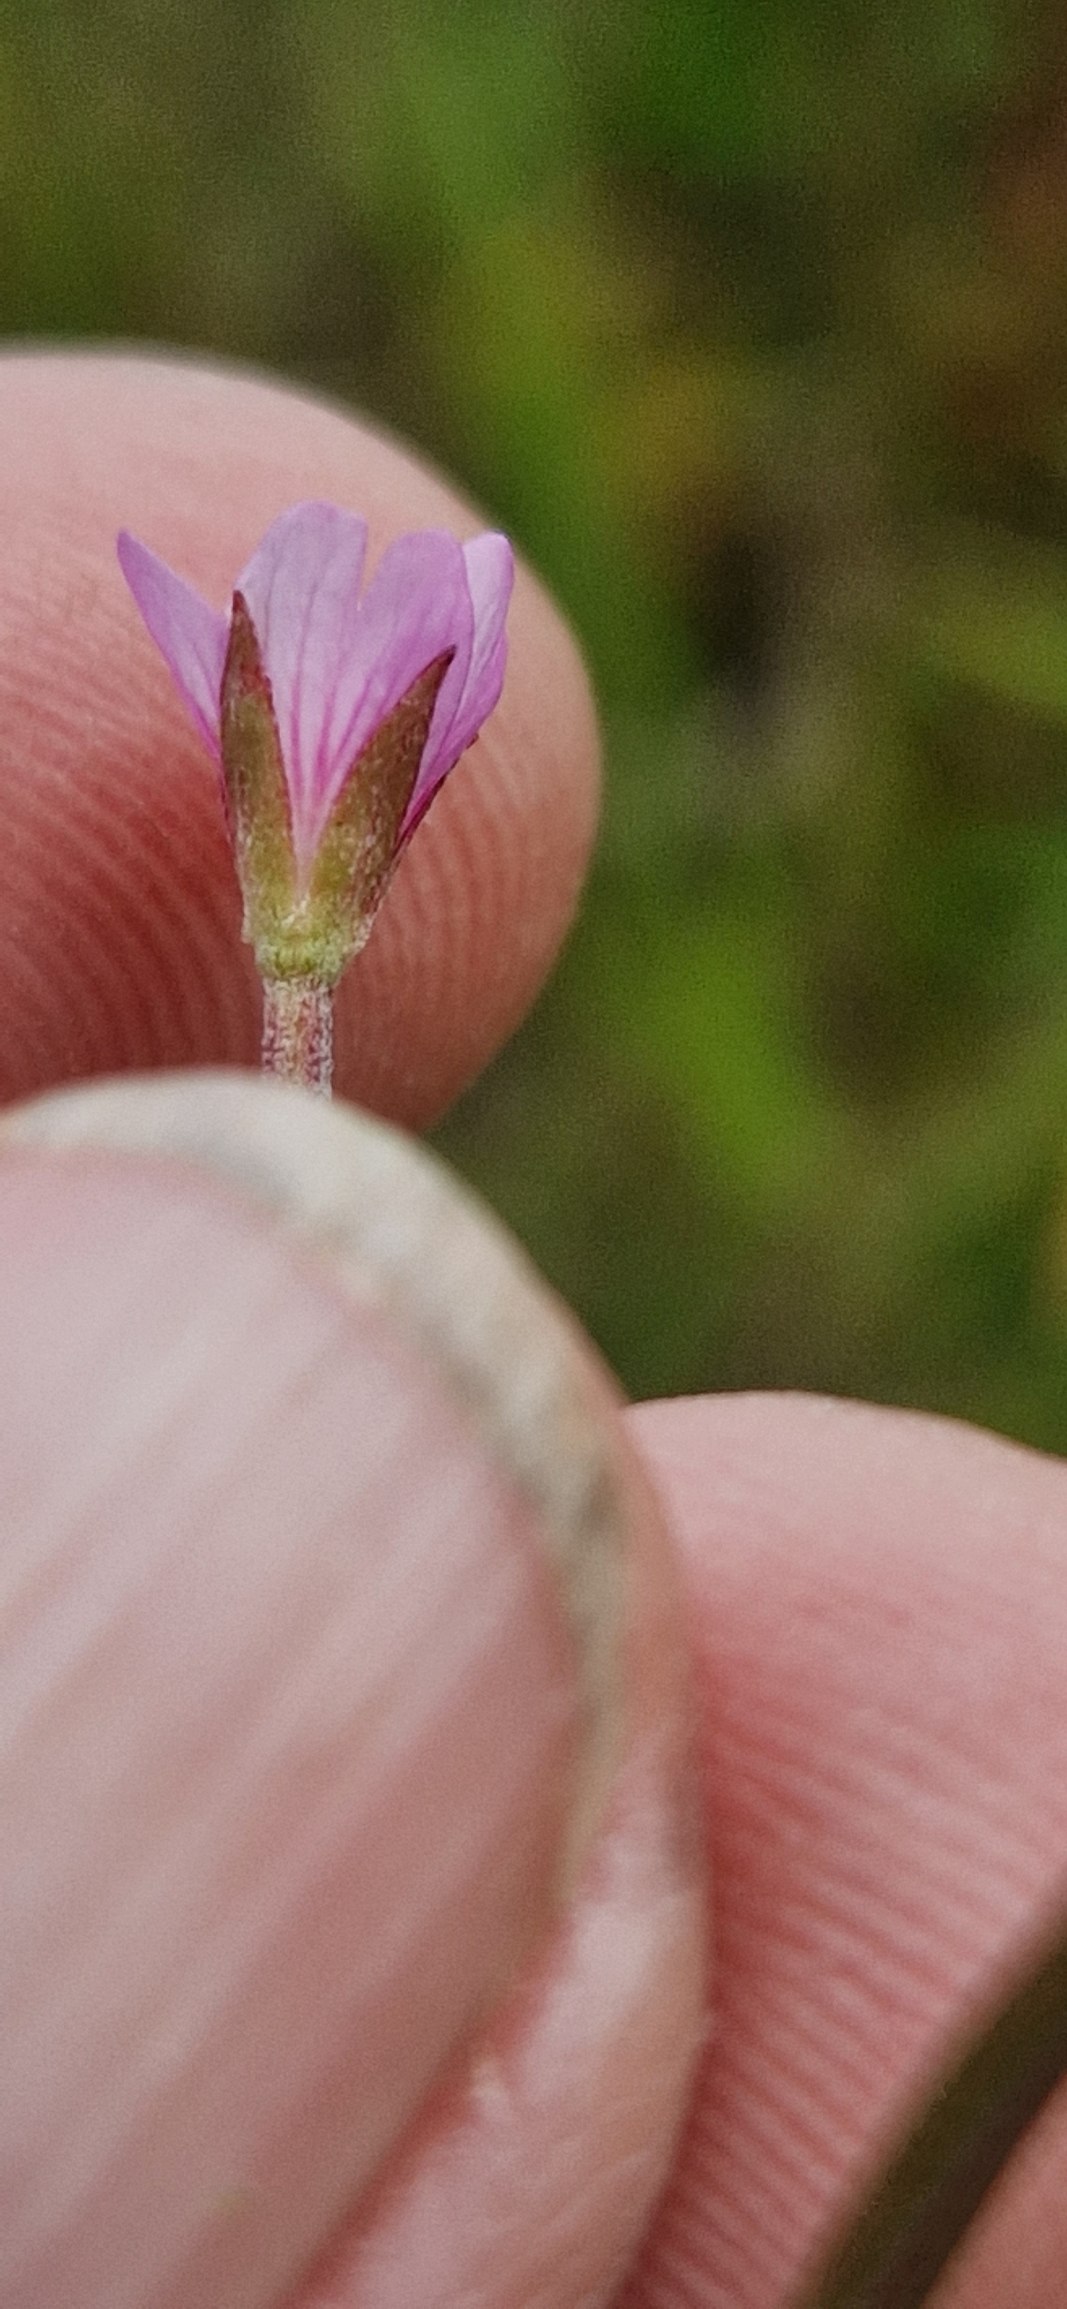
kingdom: Plantae
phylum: Tracheophyta
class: Magnoliopsida
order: Myrtales
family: Onagraceae
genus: Epilobium
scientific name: Epilobium lamyi
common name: Rank dueurt
